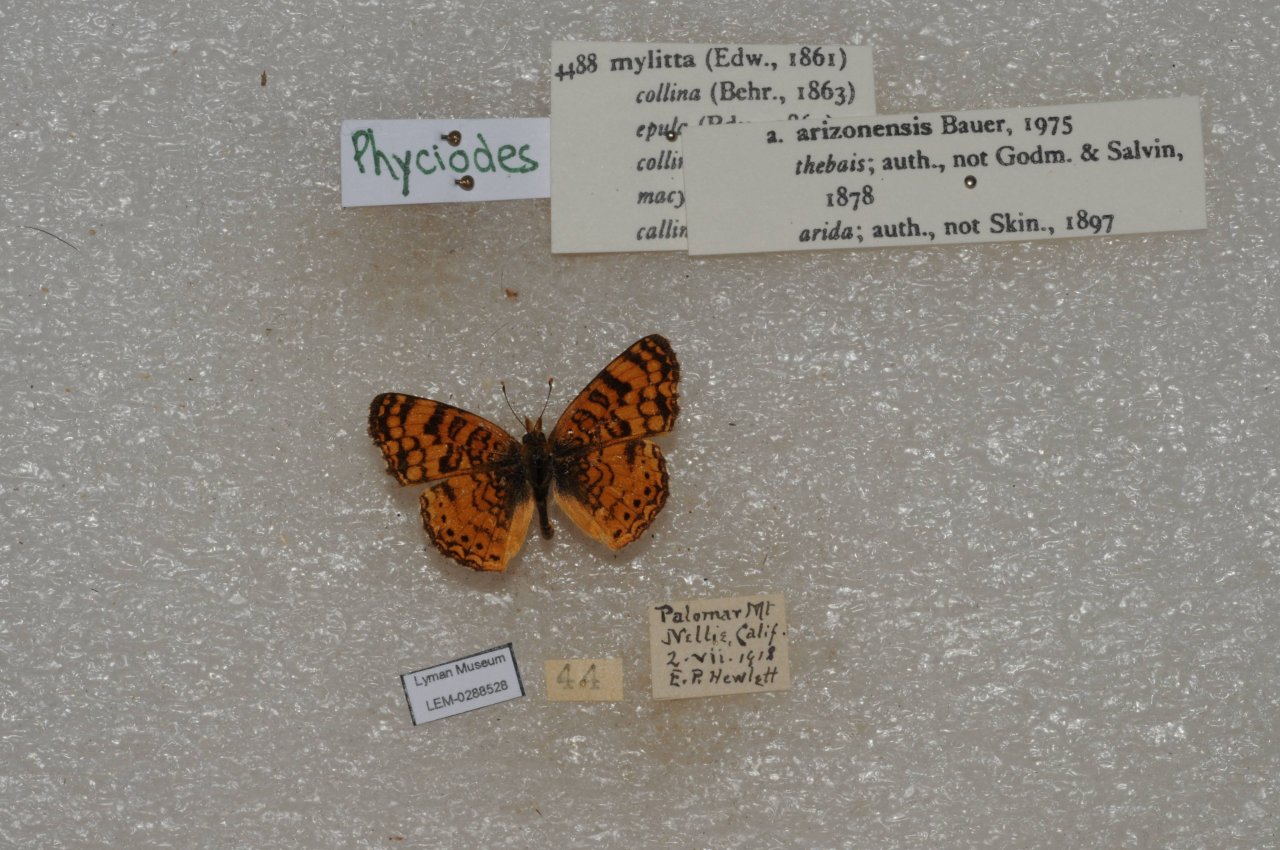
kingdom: Animalia
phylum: Arthropoda
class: Insecta
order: Lepidoptera
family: Nymphalidae
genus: Eresia
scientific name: Eresia aveyrona
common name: Mylitta Crescent
